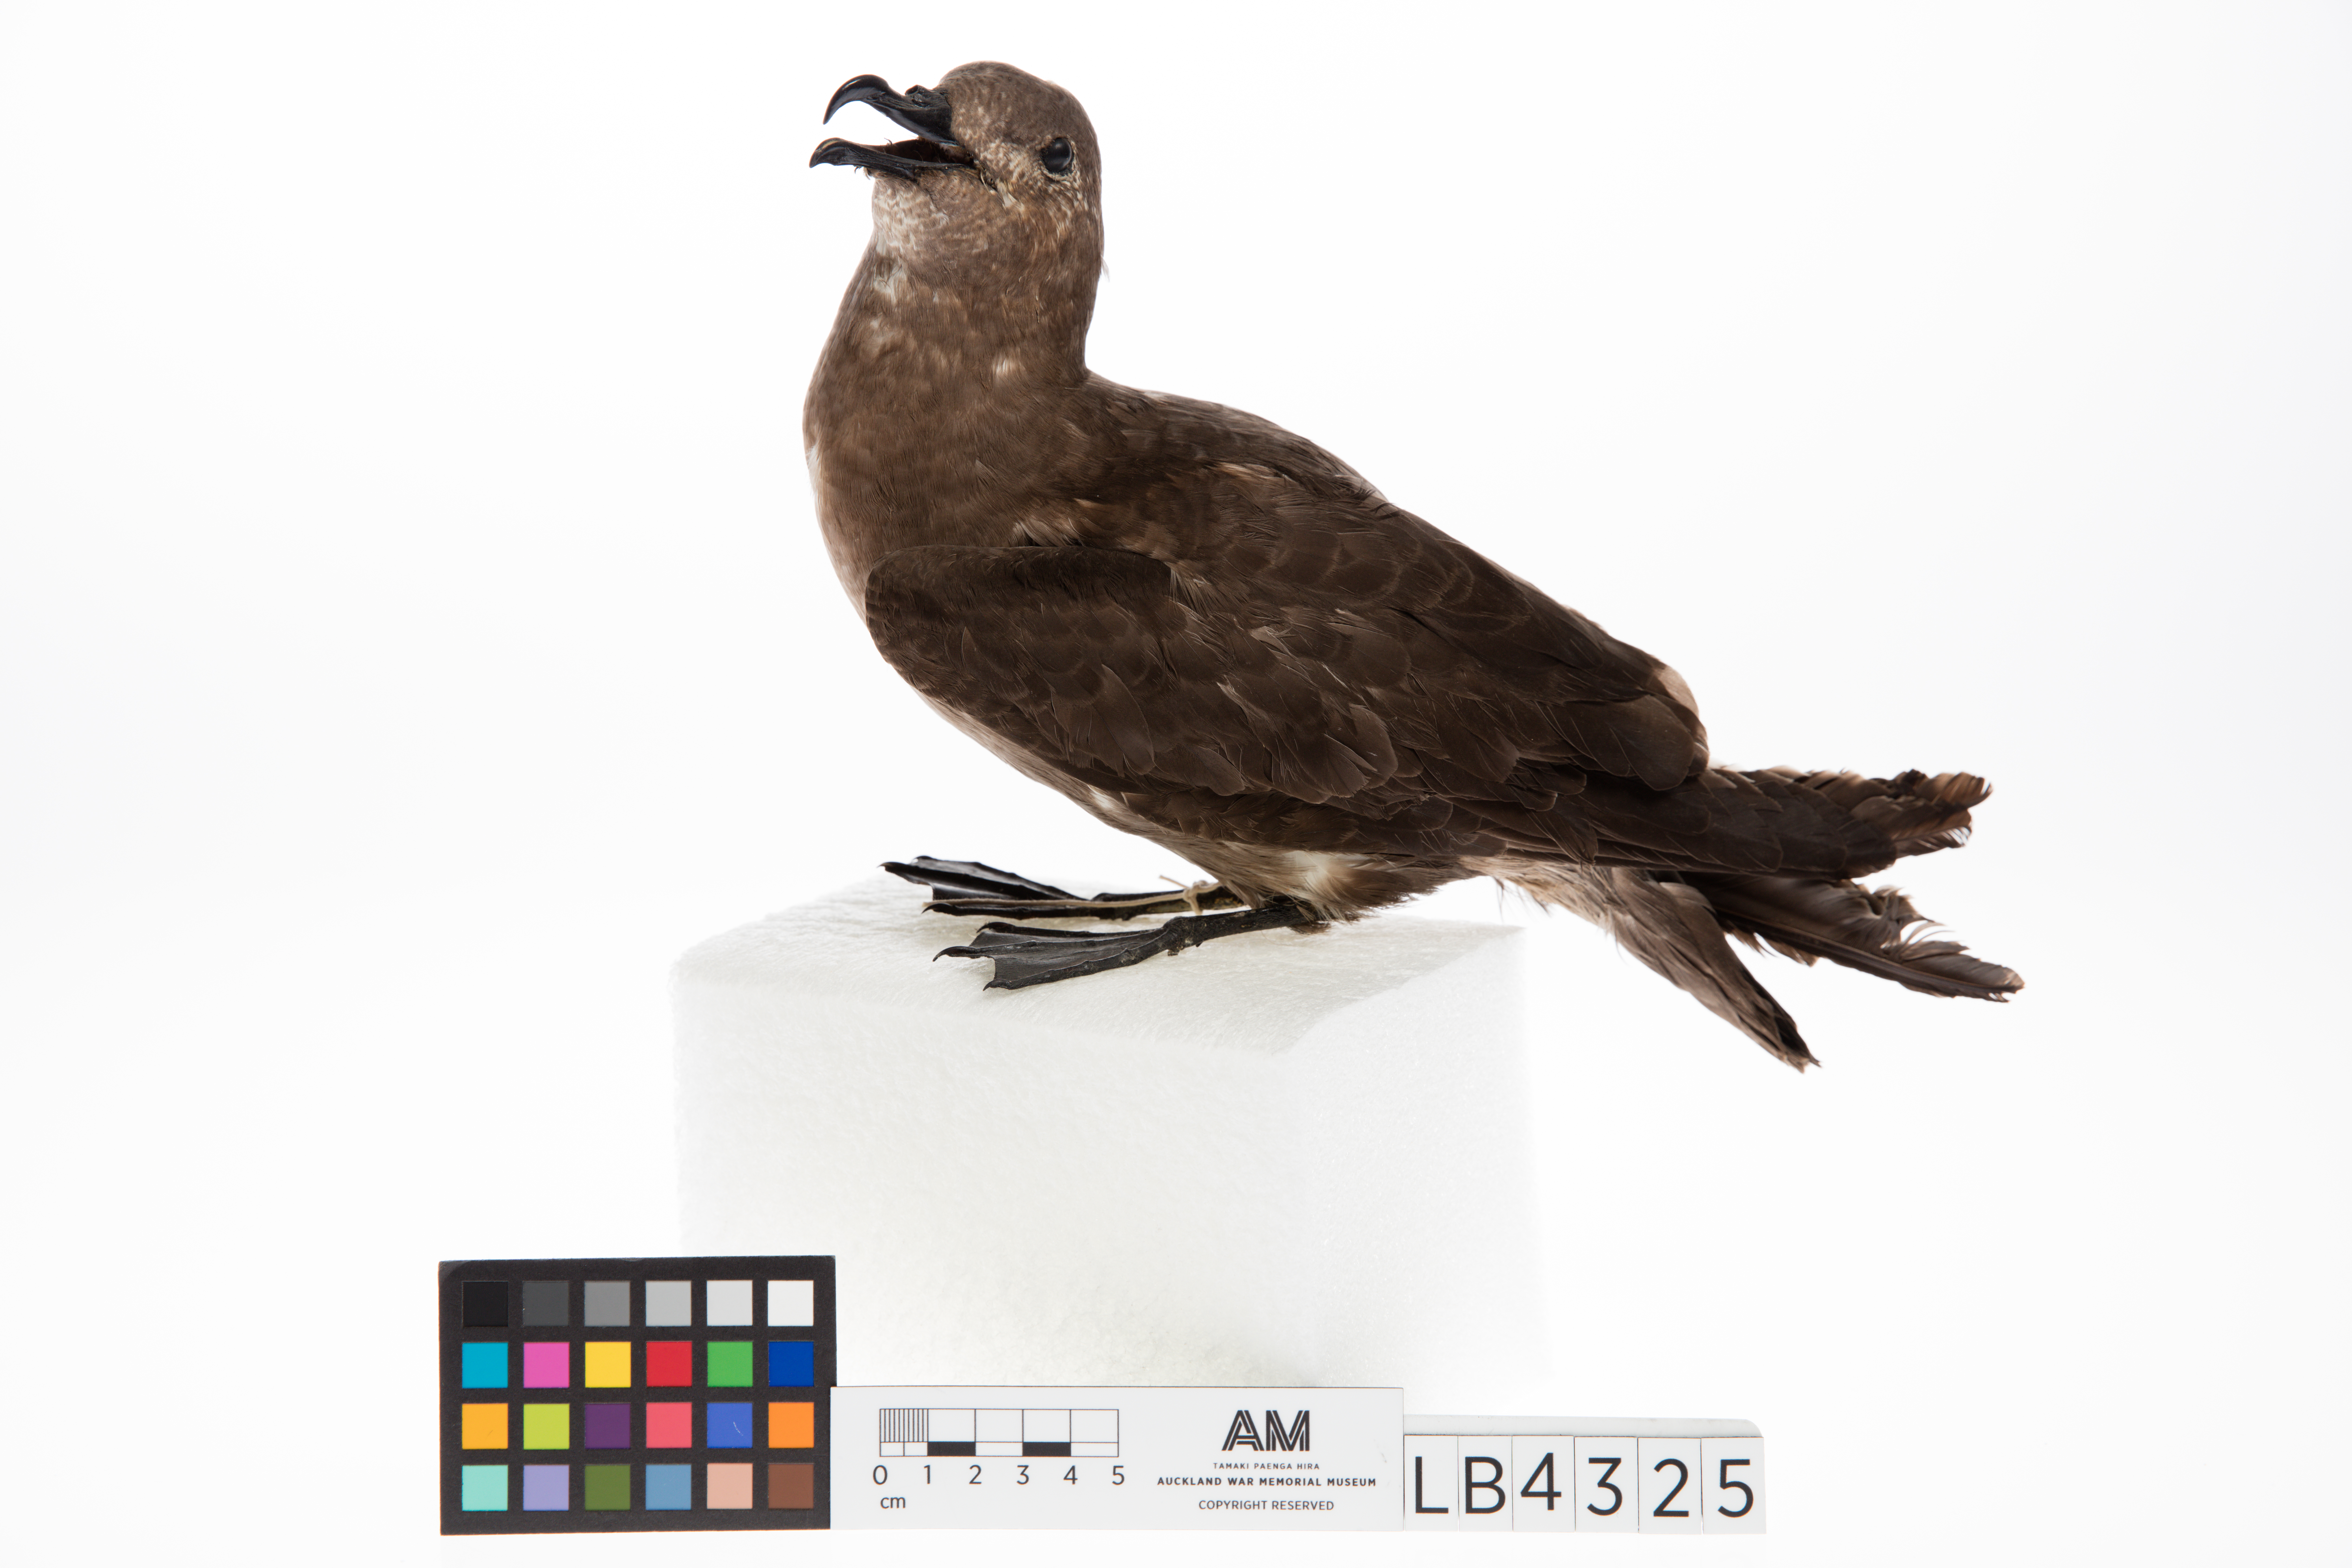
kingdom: Animalia
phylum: Chordata
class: Aves
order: Procellariiformes
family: Procellariidae
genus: Pterodroma
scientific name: Pterodroma neglecta
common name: Kermadec petrel
